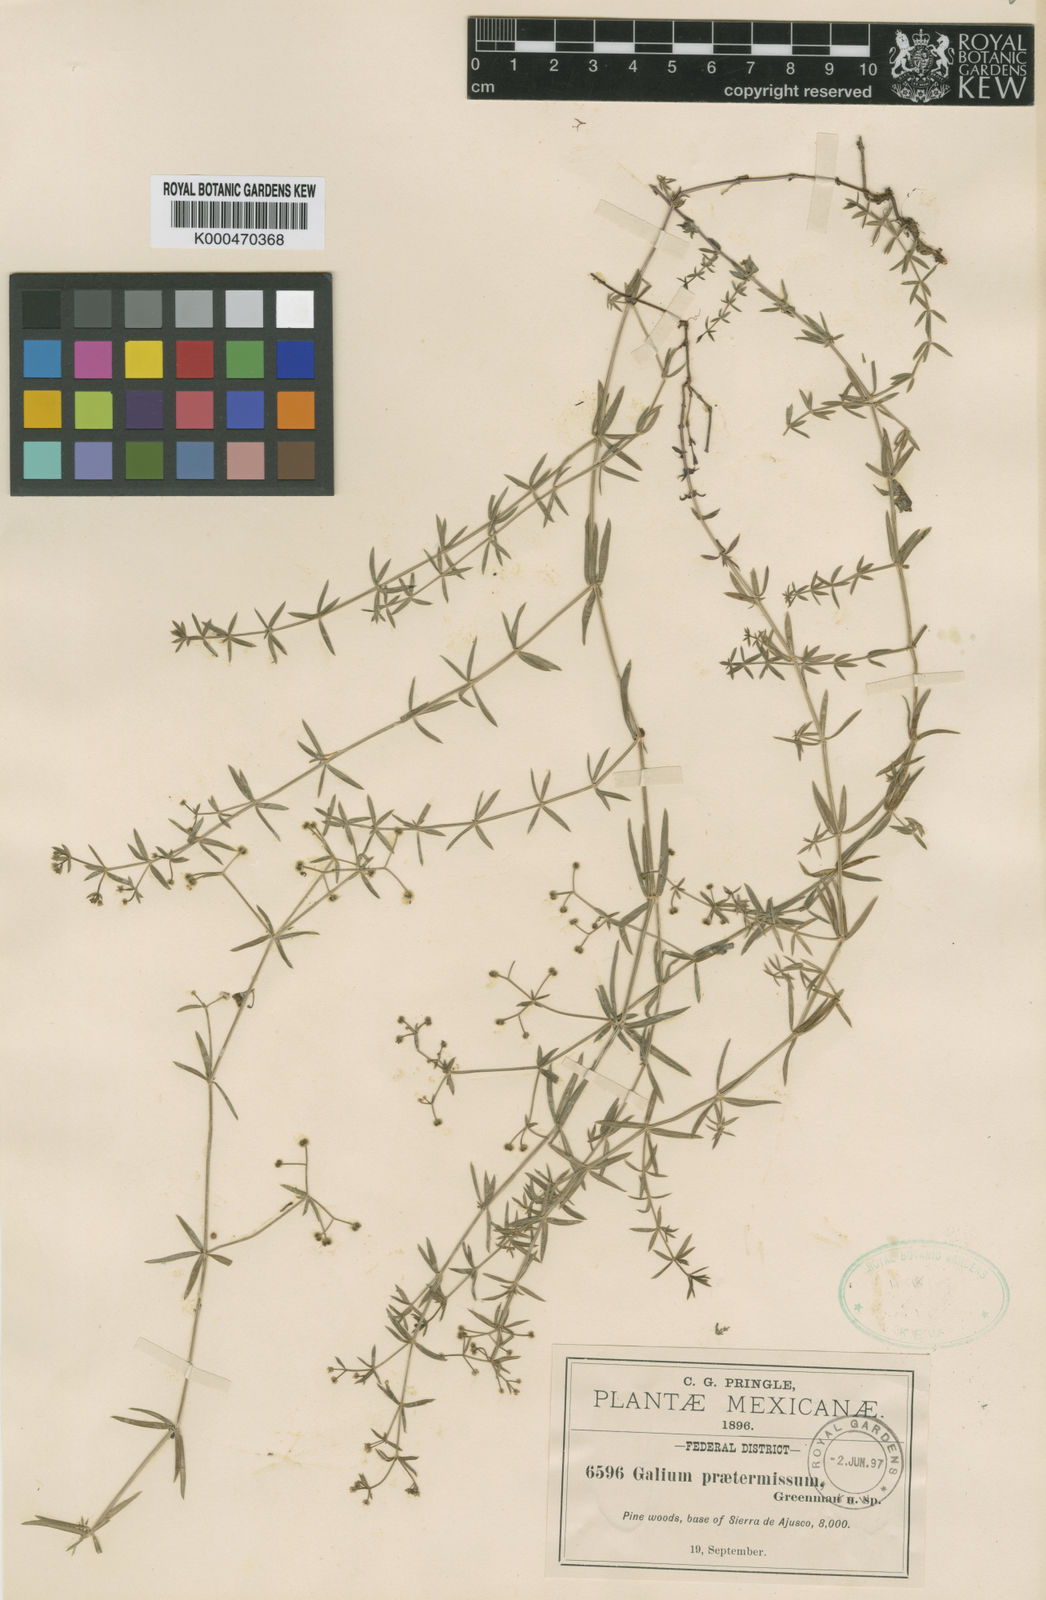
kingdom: Plantae
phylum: Tracheophyta
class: Magnoliopsida
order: Gentianales
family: Rubiaceae
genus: Galium
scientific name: Galium praetermissum
